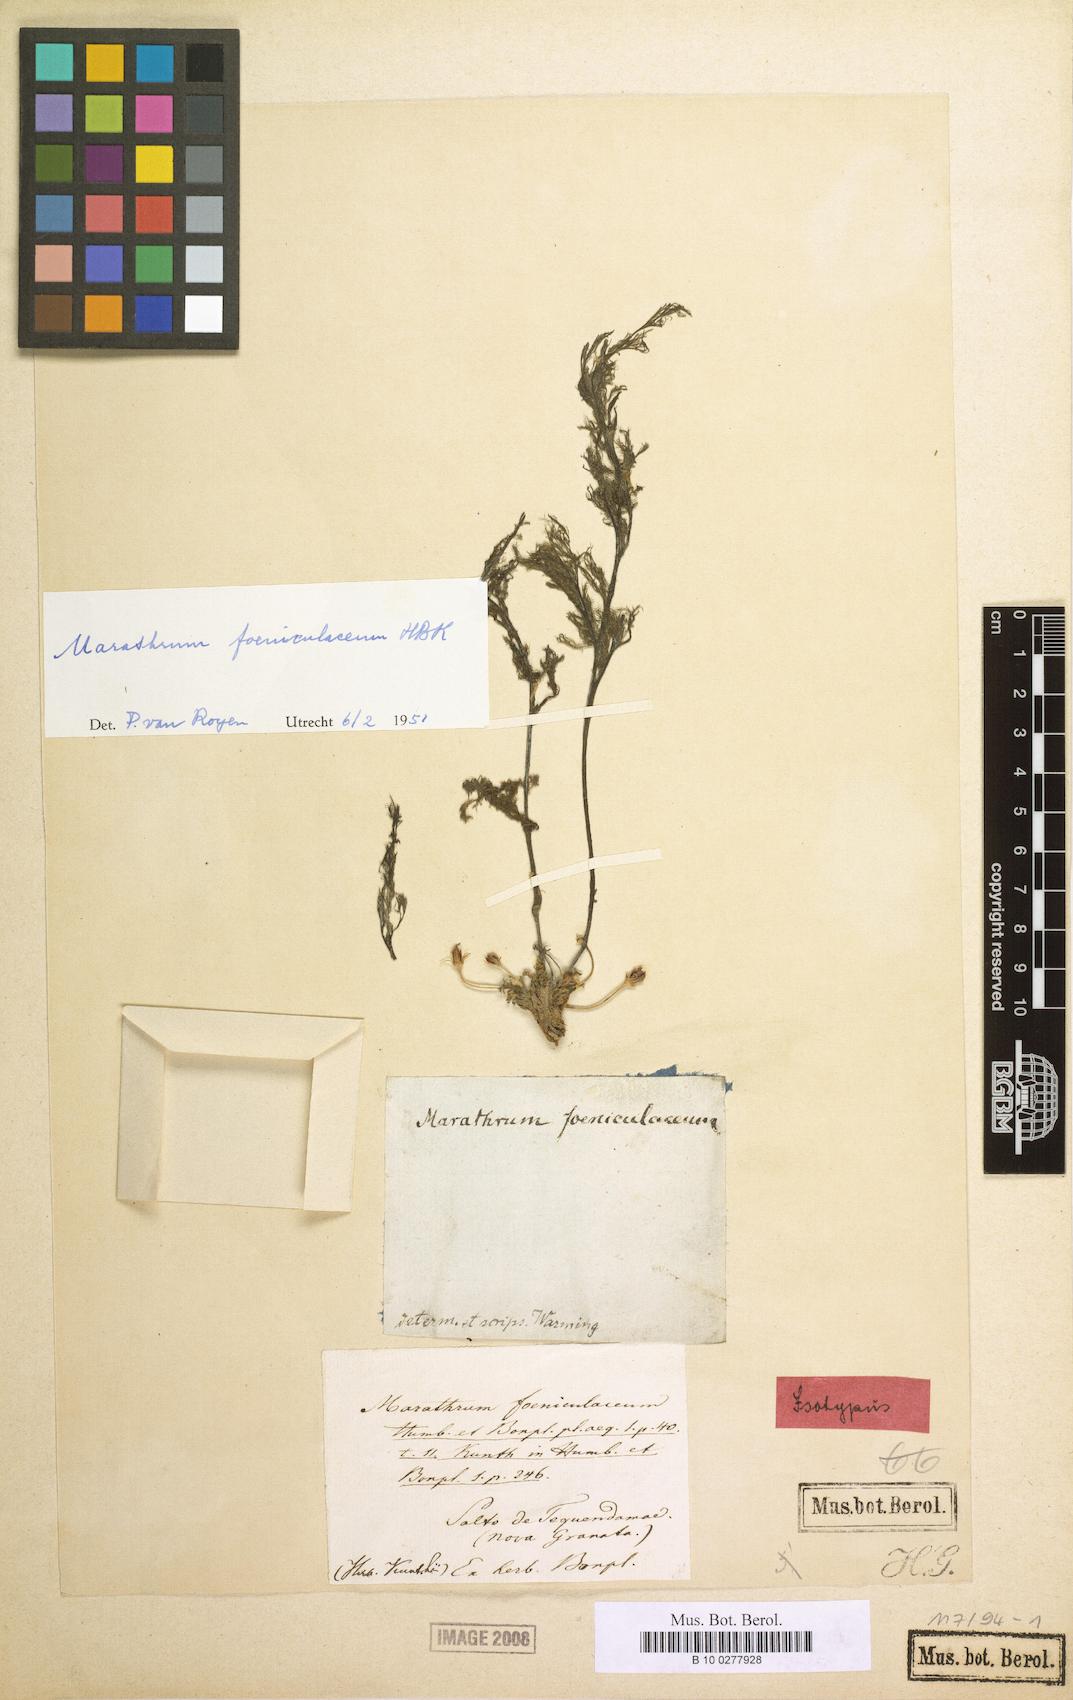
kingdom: Plantae
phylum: Tracheophyta
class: Magnoliopsida
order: Malpighiales
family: Podostemaceae
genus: Marathrum
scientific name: Marathrum foeniculaceum
